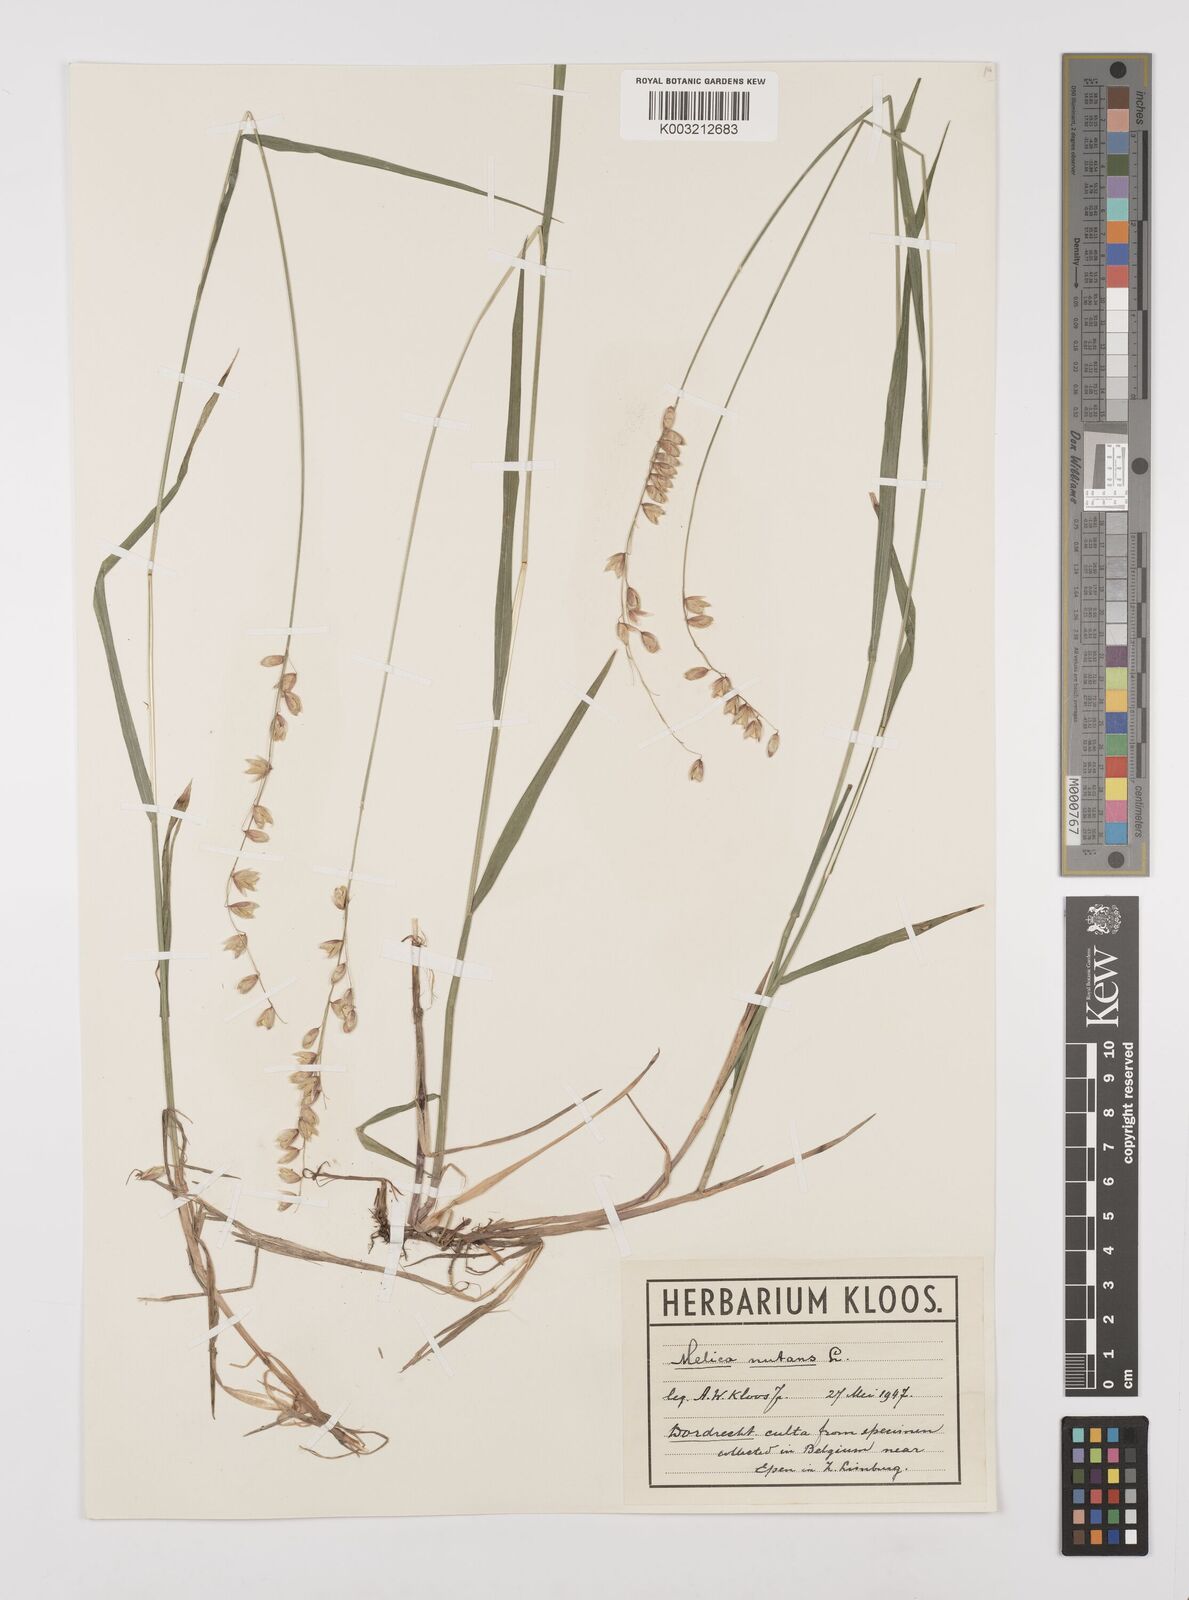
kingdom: Plantae
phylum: Tracheophyta
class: Liliopsida
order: Poales
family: Poaceae
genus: Melica
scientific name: Melica nutans
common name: Mountain melick
